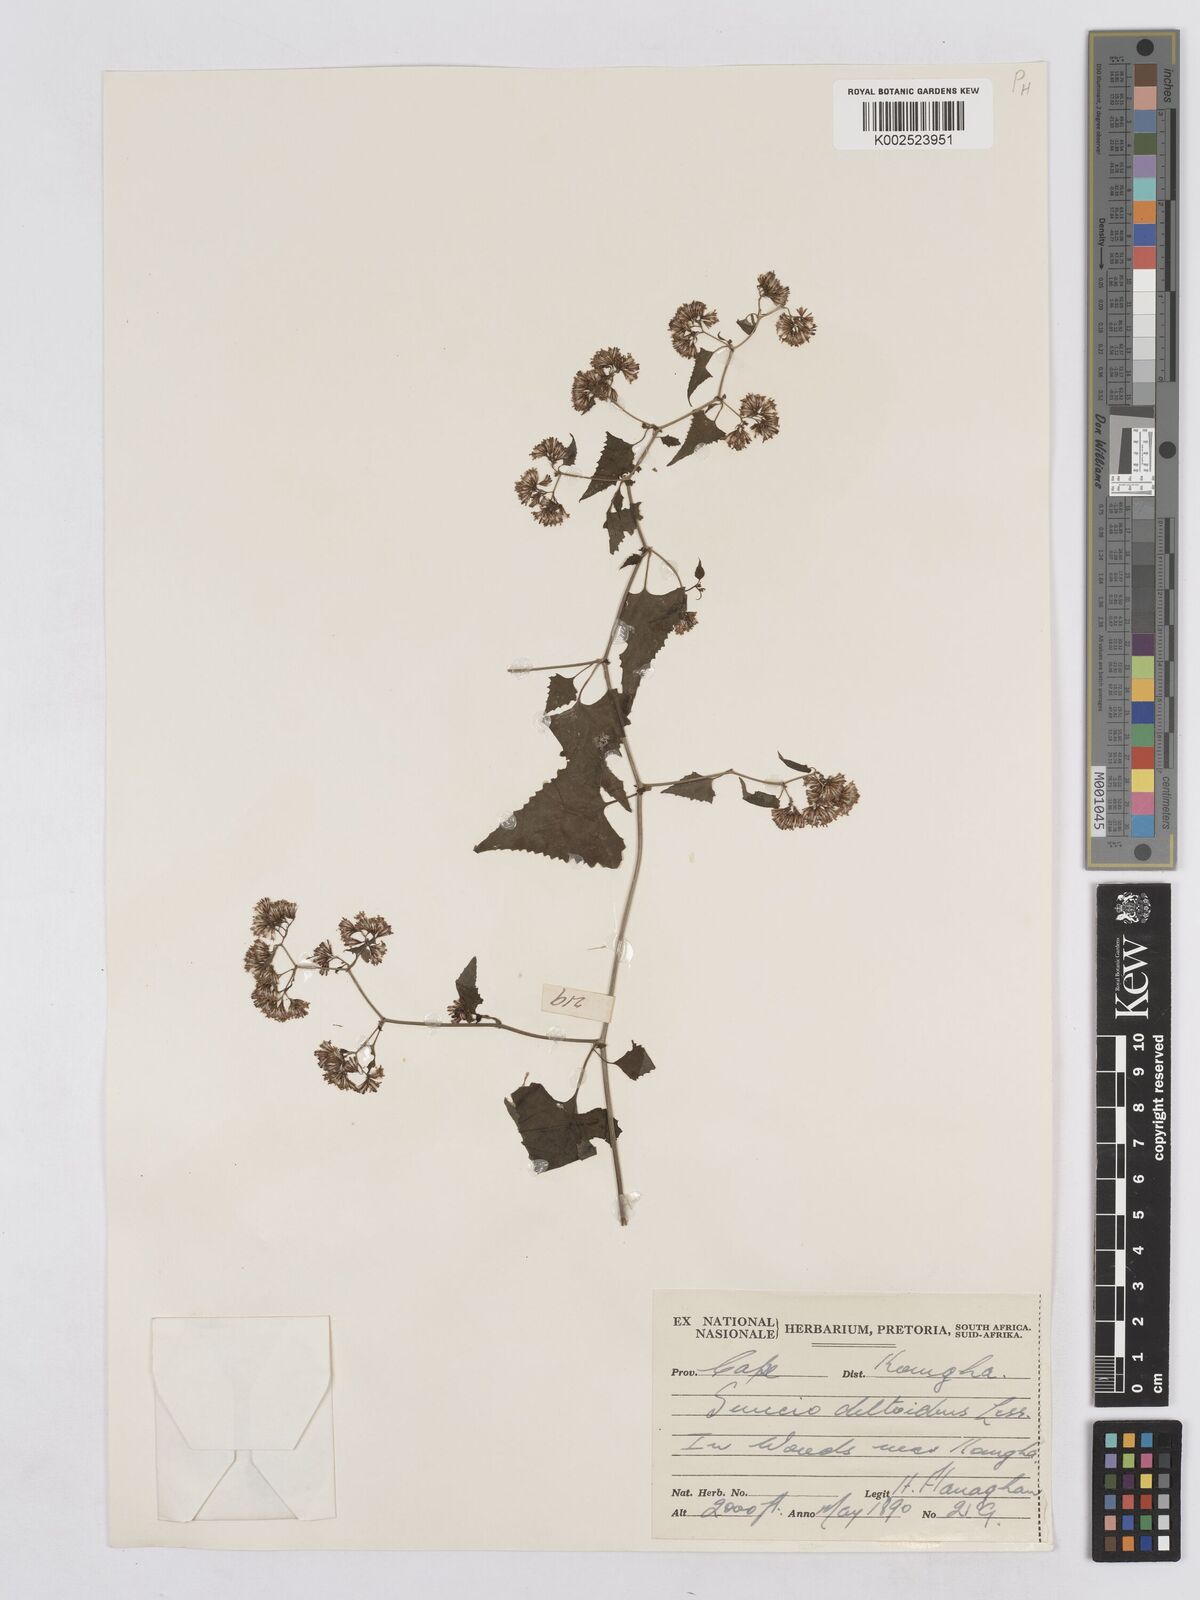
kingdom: Plantae
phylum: Tracheophyta
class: Magnoliopsida
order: Asterales
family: Asteraceae
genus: Senecio
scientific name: Senecio deltoideus
